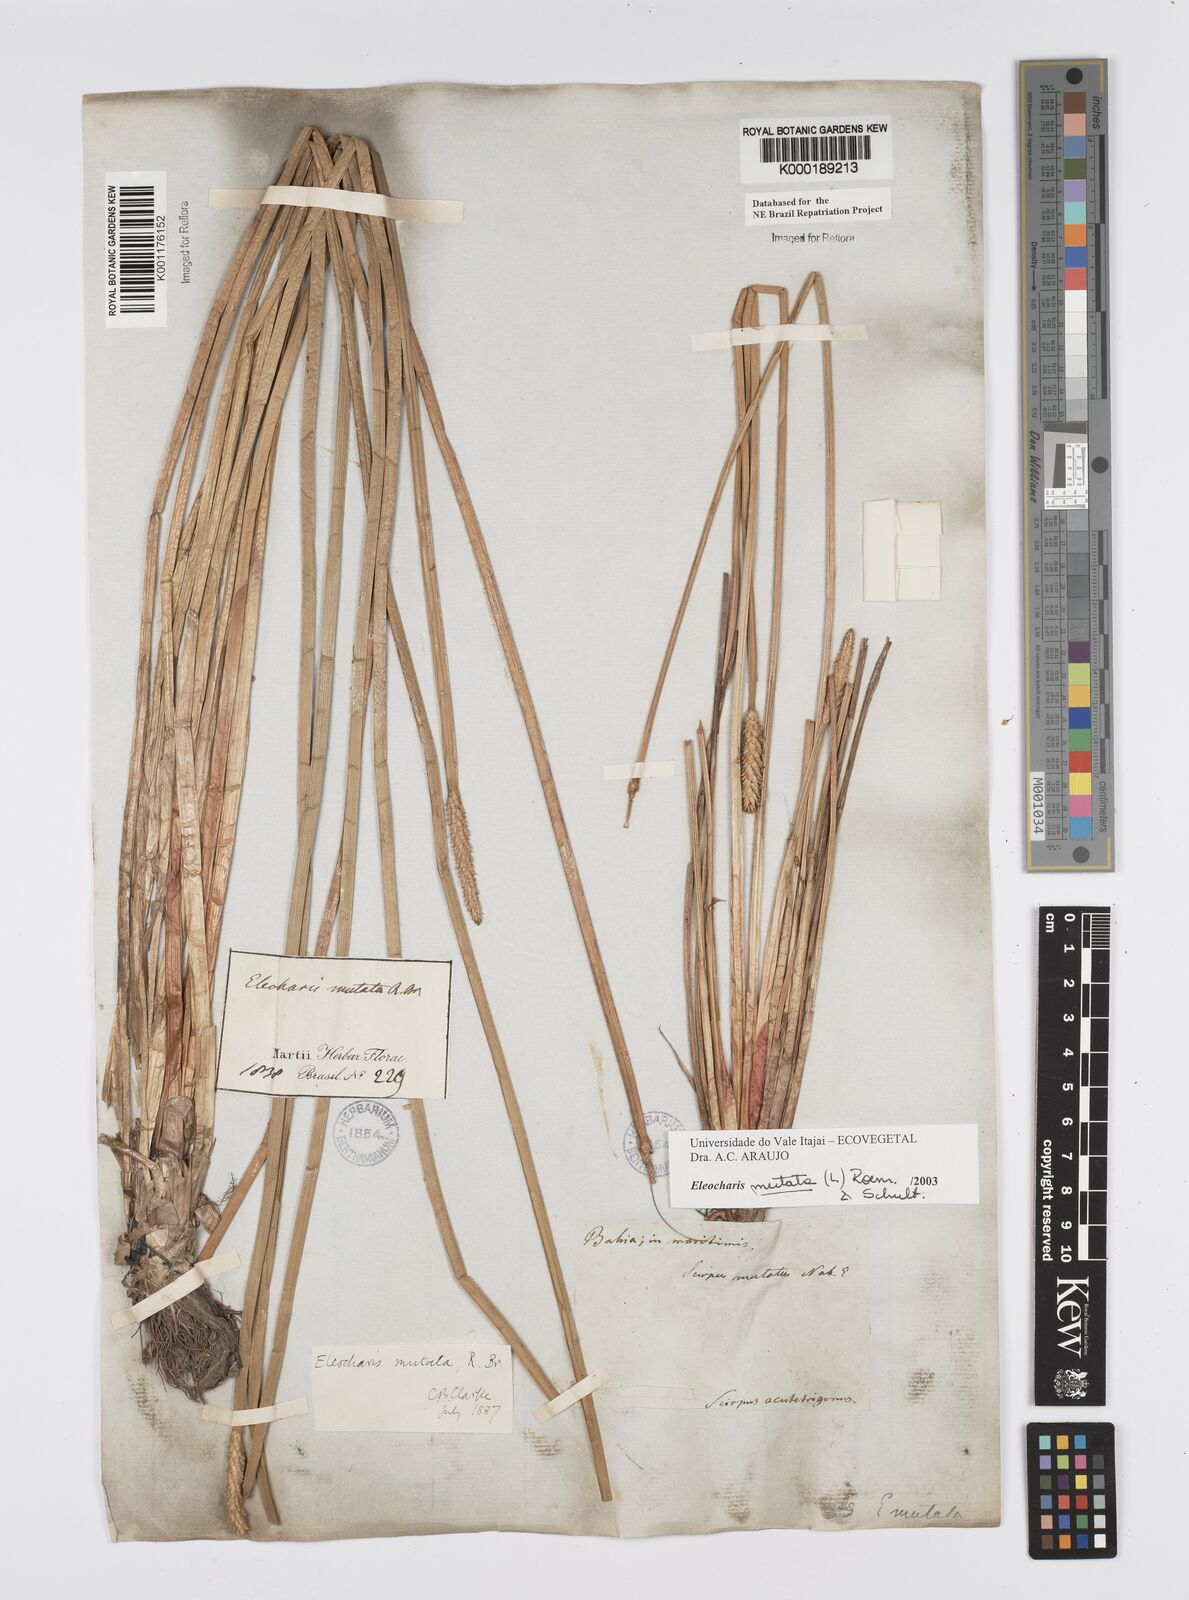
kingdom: Plantae
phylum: Tracheophyta
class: Liliopsida
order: Poales
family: Cyperaceae
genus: Eleocharis
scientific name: Eleocharis mutata
